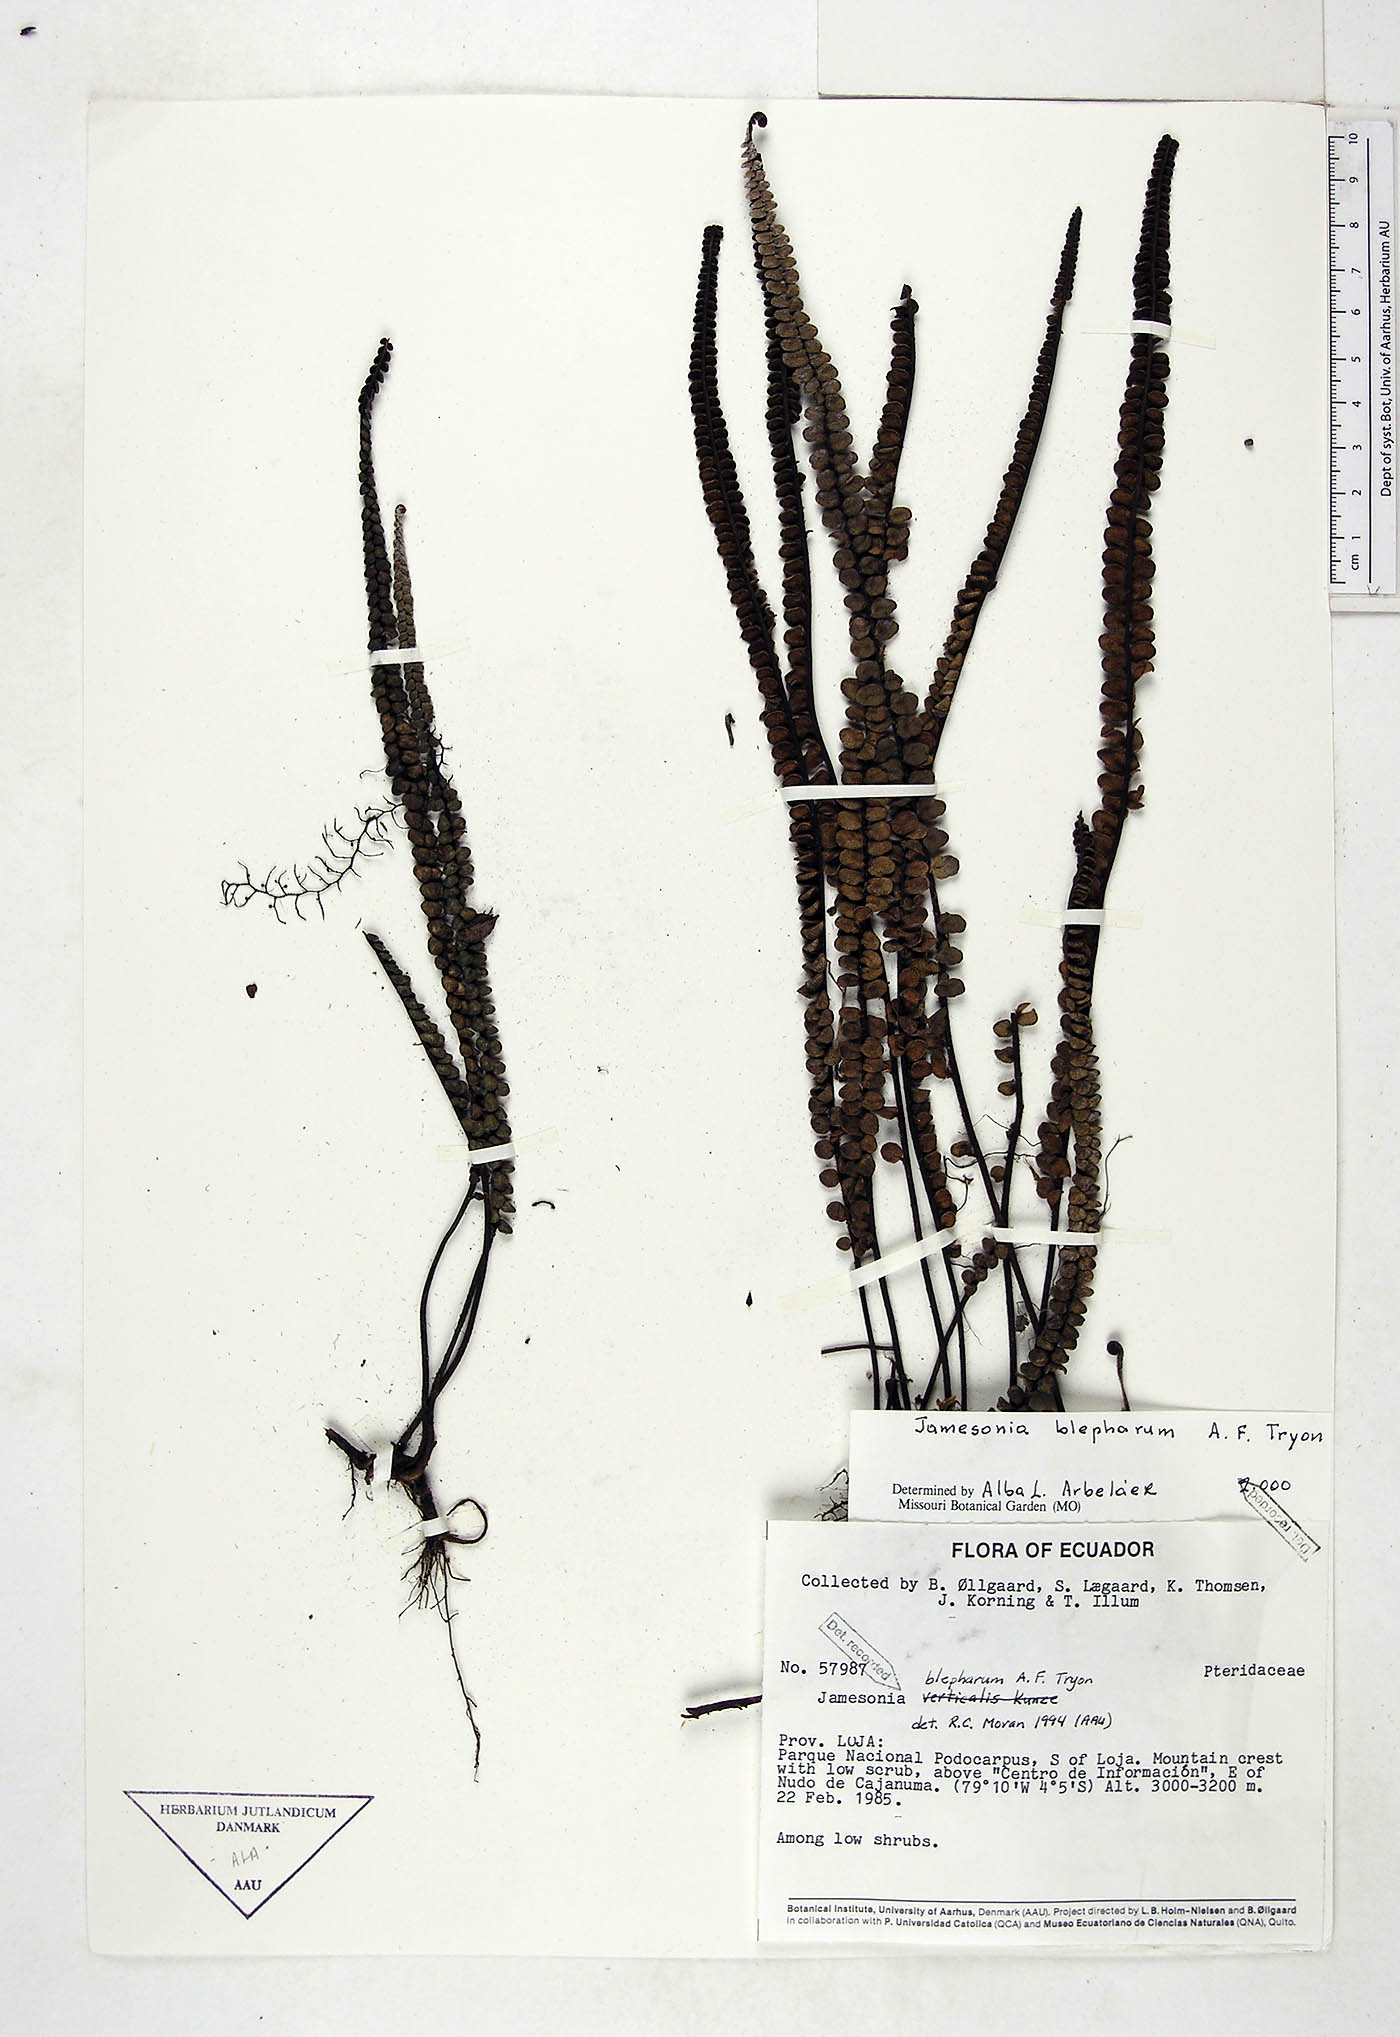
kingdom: Plantae
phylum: Tracheophyta
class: Polypodiopsida
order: Polypodiales
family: Pteridaceae
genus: Jamesonia
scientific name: Jamesonia blepharum
